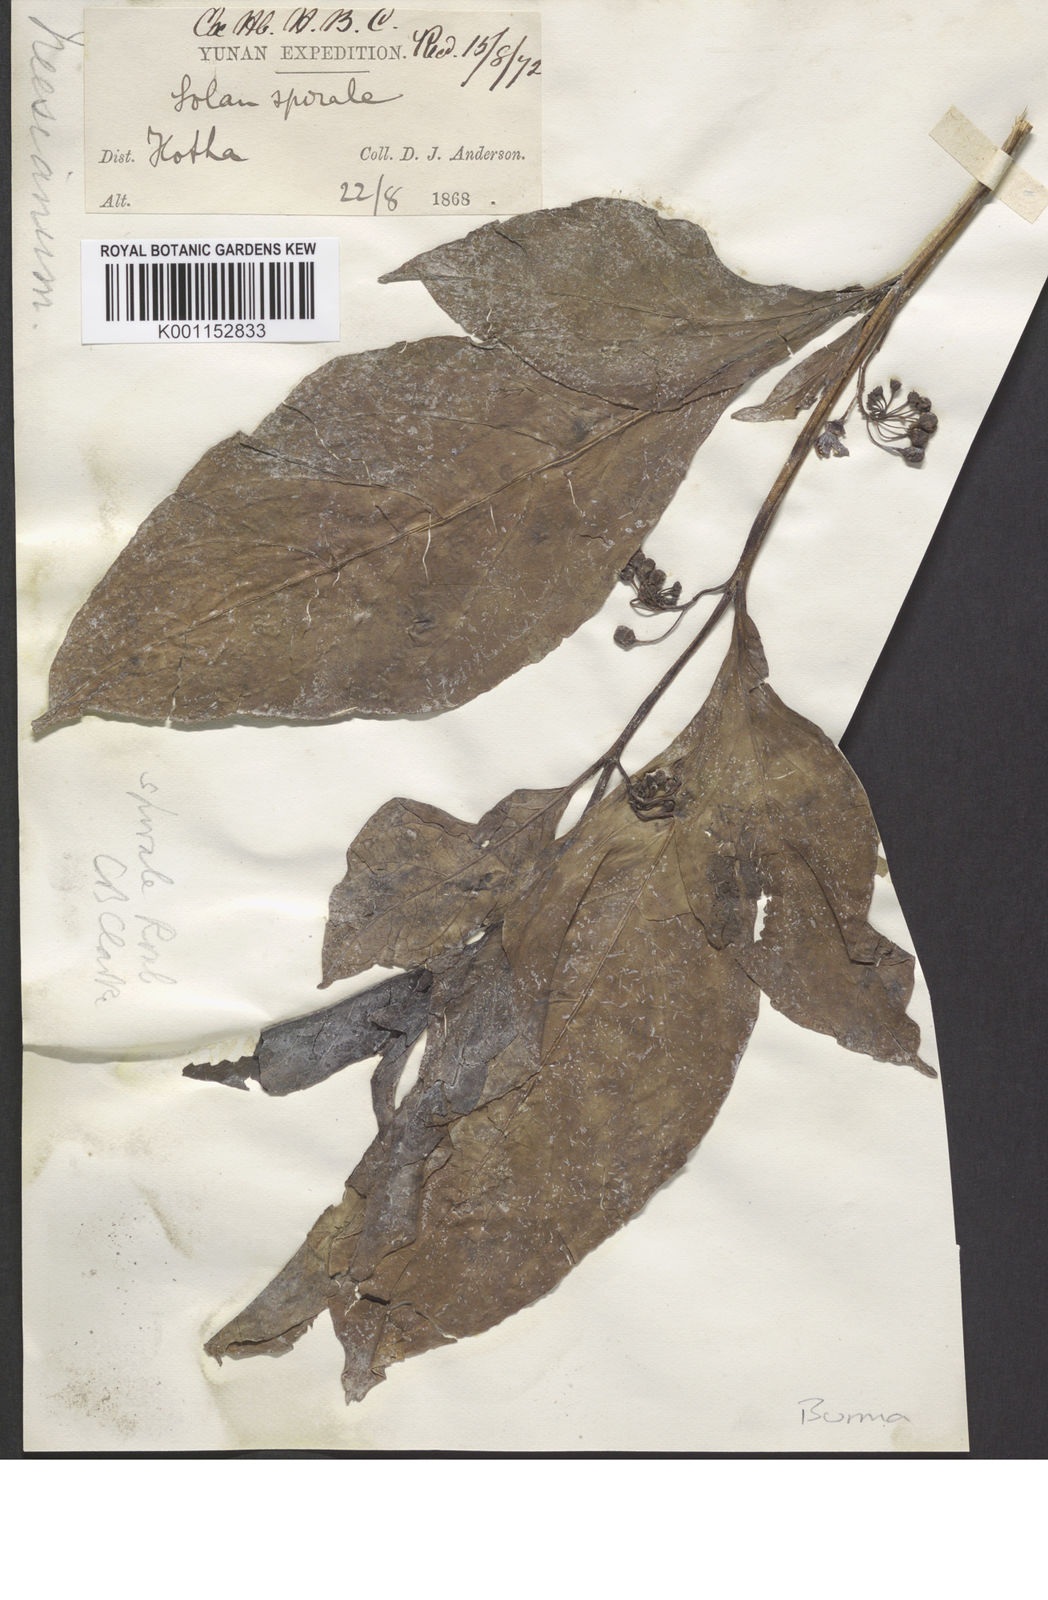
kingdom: Plantae
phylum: Tracheophyta
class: Magnoliopsida
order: Solanales
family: Solanaceae
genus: Solanum
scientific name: Solanum spirale
